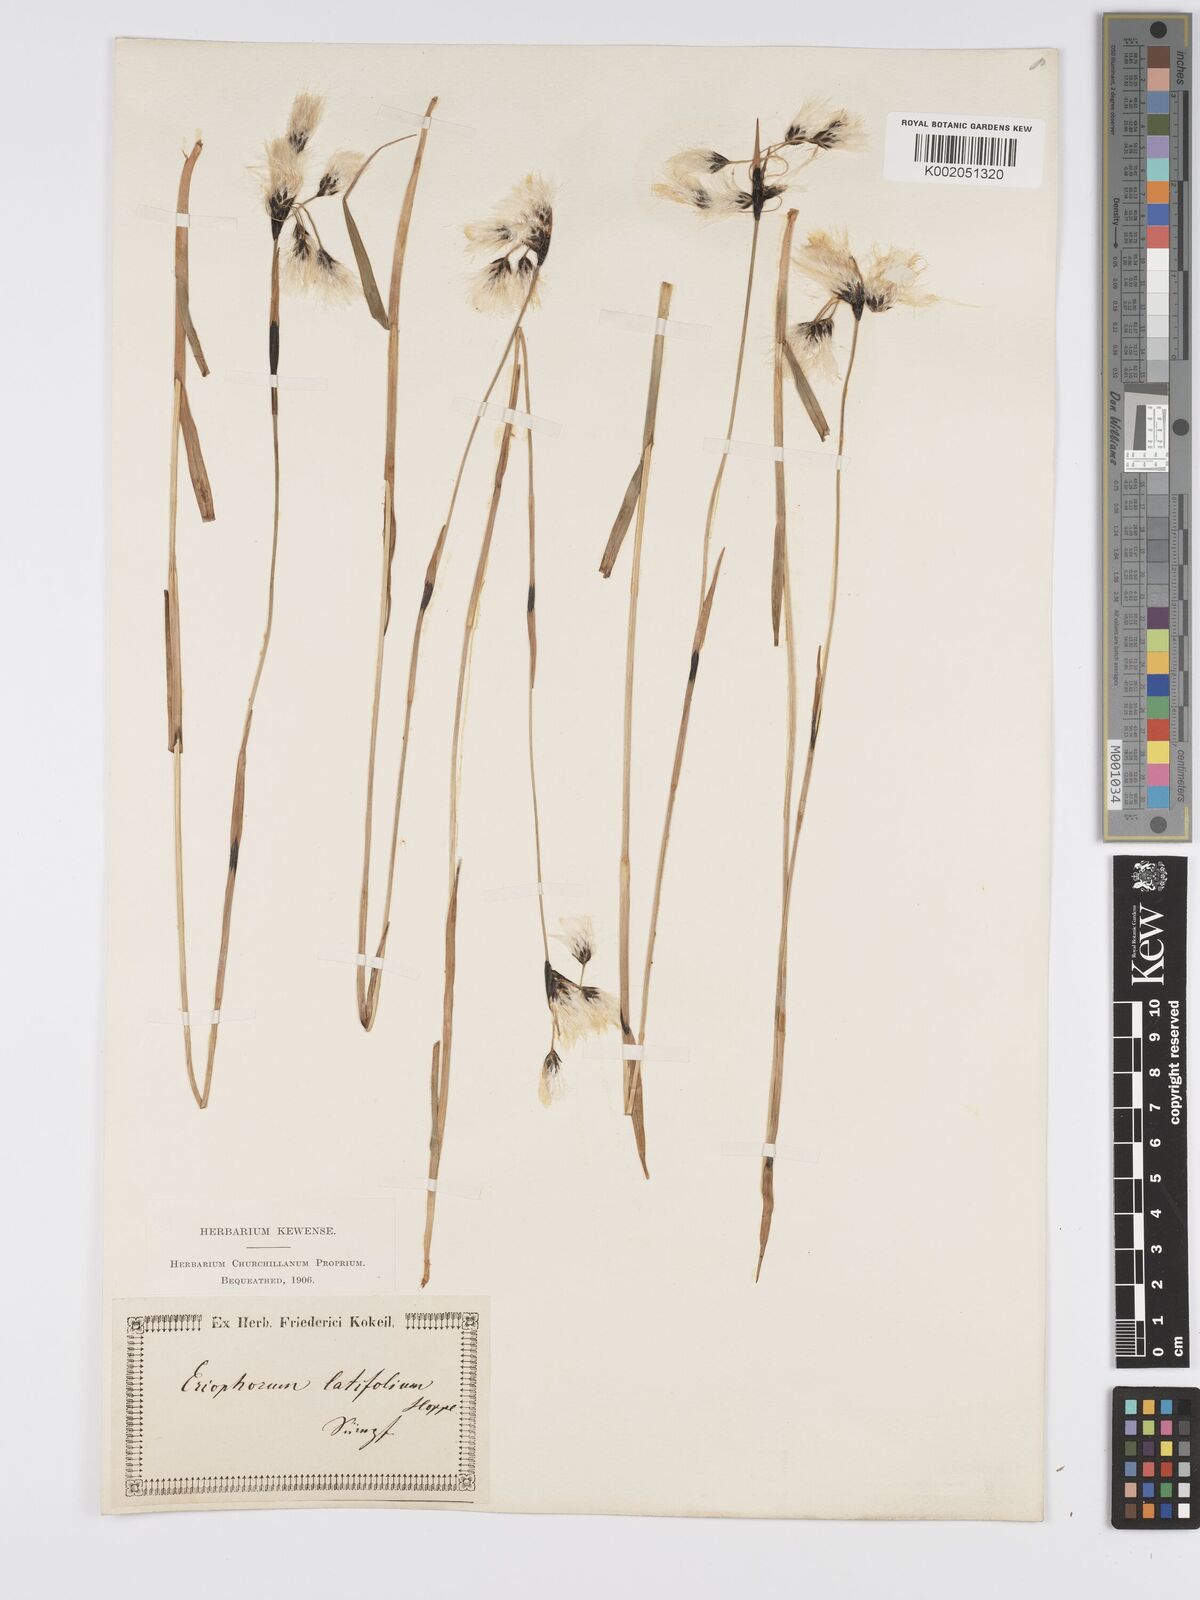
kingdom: Plantae
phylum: Tracheophyta
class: Liliopsida
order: Poales
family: Cyperaceae
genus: Eriophorum
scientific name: Eriophorum latifolium
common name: Broad-leaved cottongrass
